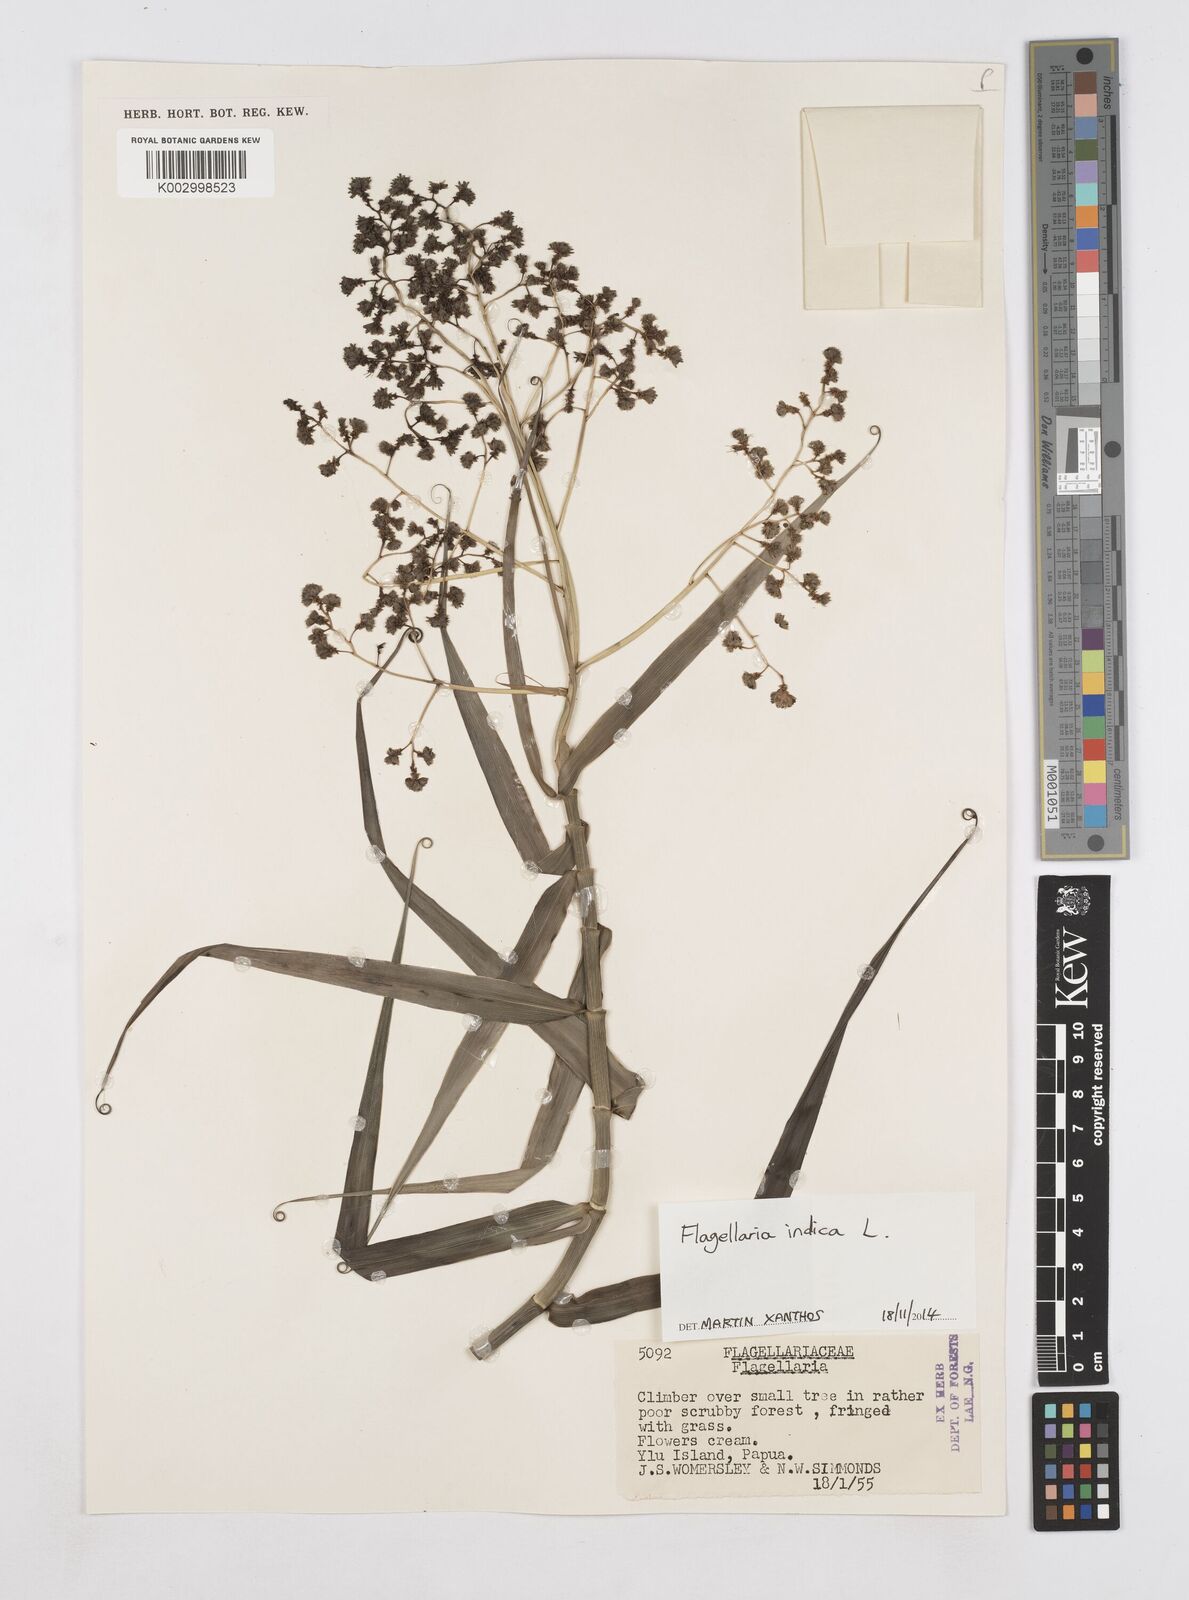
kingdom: Plantae
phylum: Tracheophyta
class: Liliopsida
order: Poales
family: Flagellariaceae
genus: Flagellaria
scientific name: Flagellaria indica
